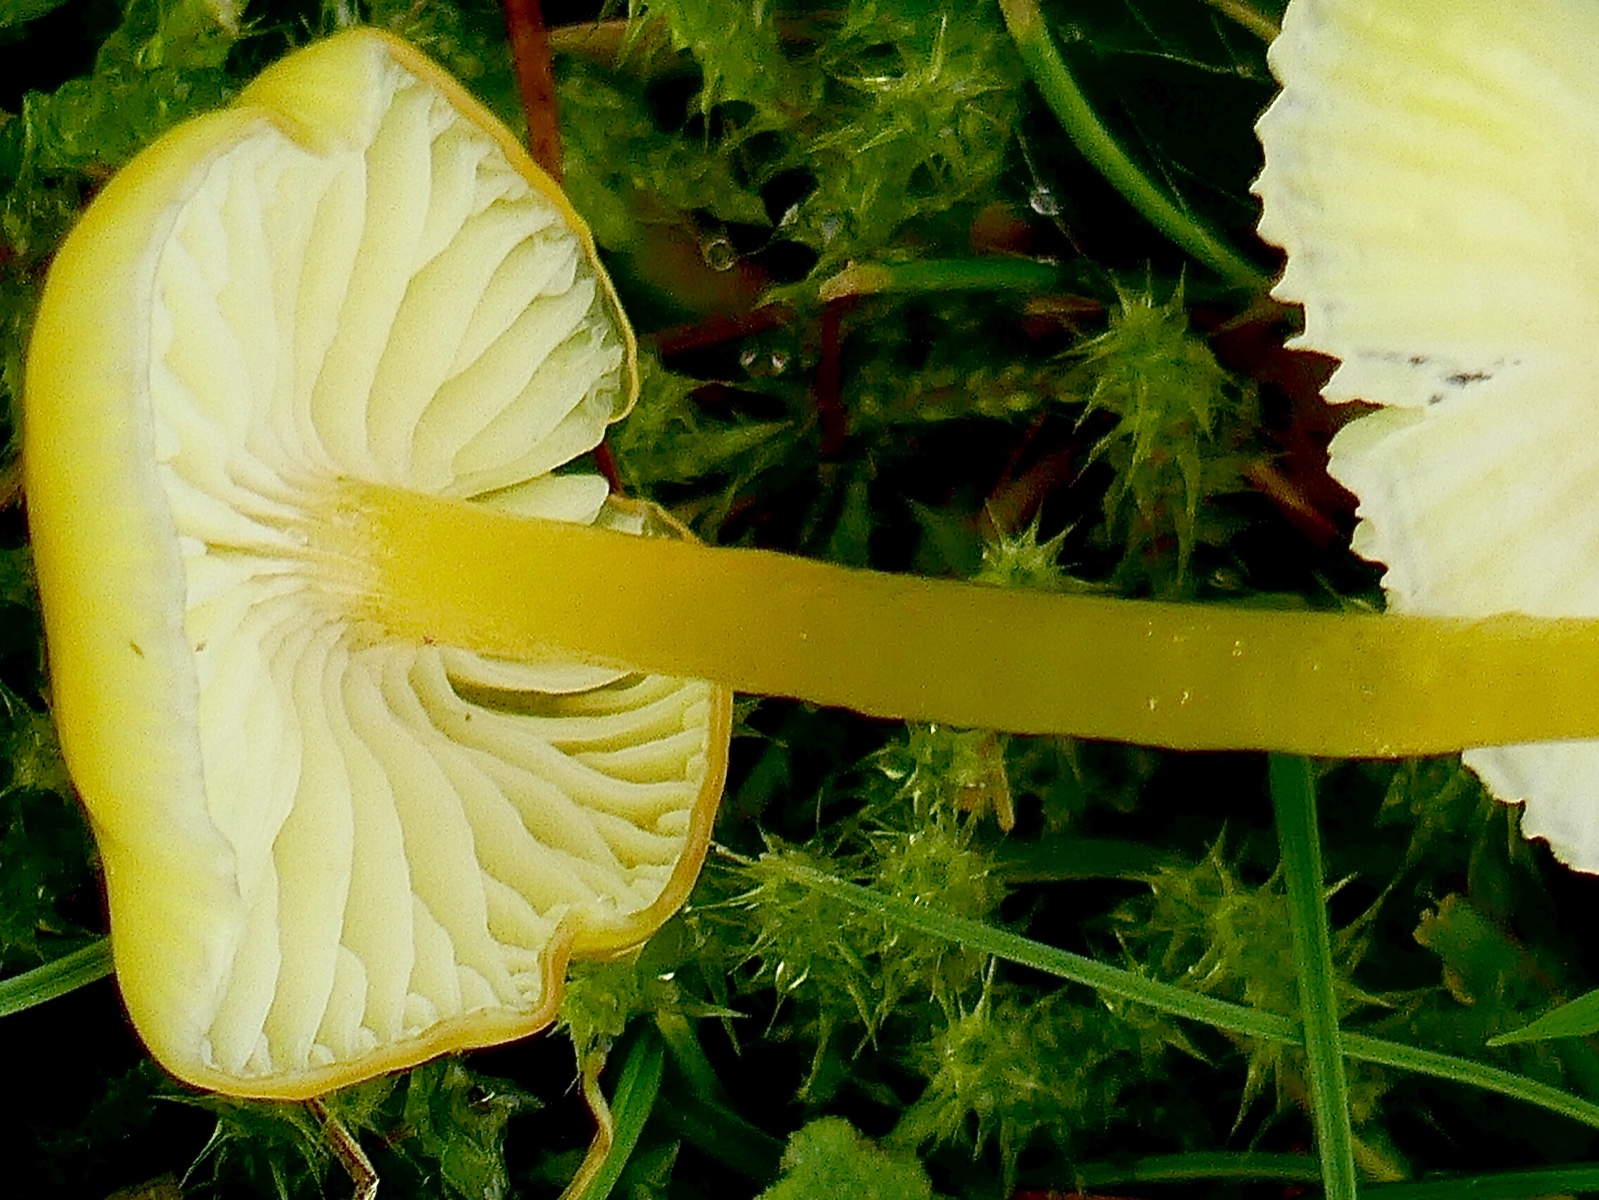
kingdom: Fungi
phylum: Basidiomycota
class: Agaricomycetes
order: Agaricales
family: Hygrophoraceae
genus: Hygrocybe
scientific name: Hygrocybe glutinipes
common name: slimstokket vokshat
